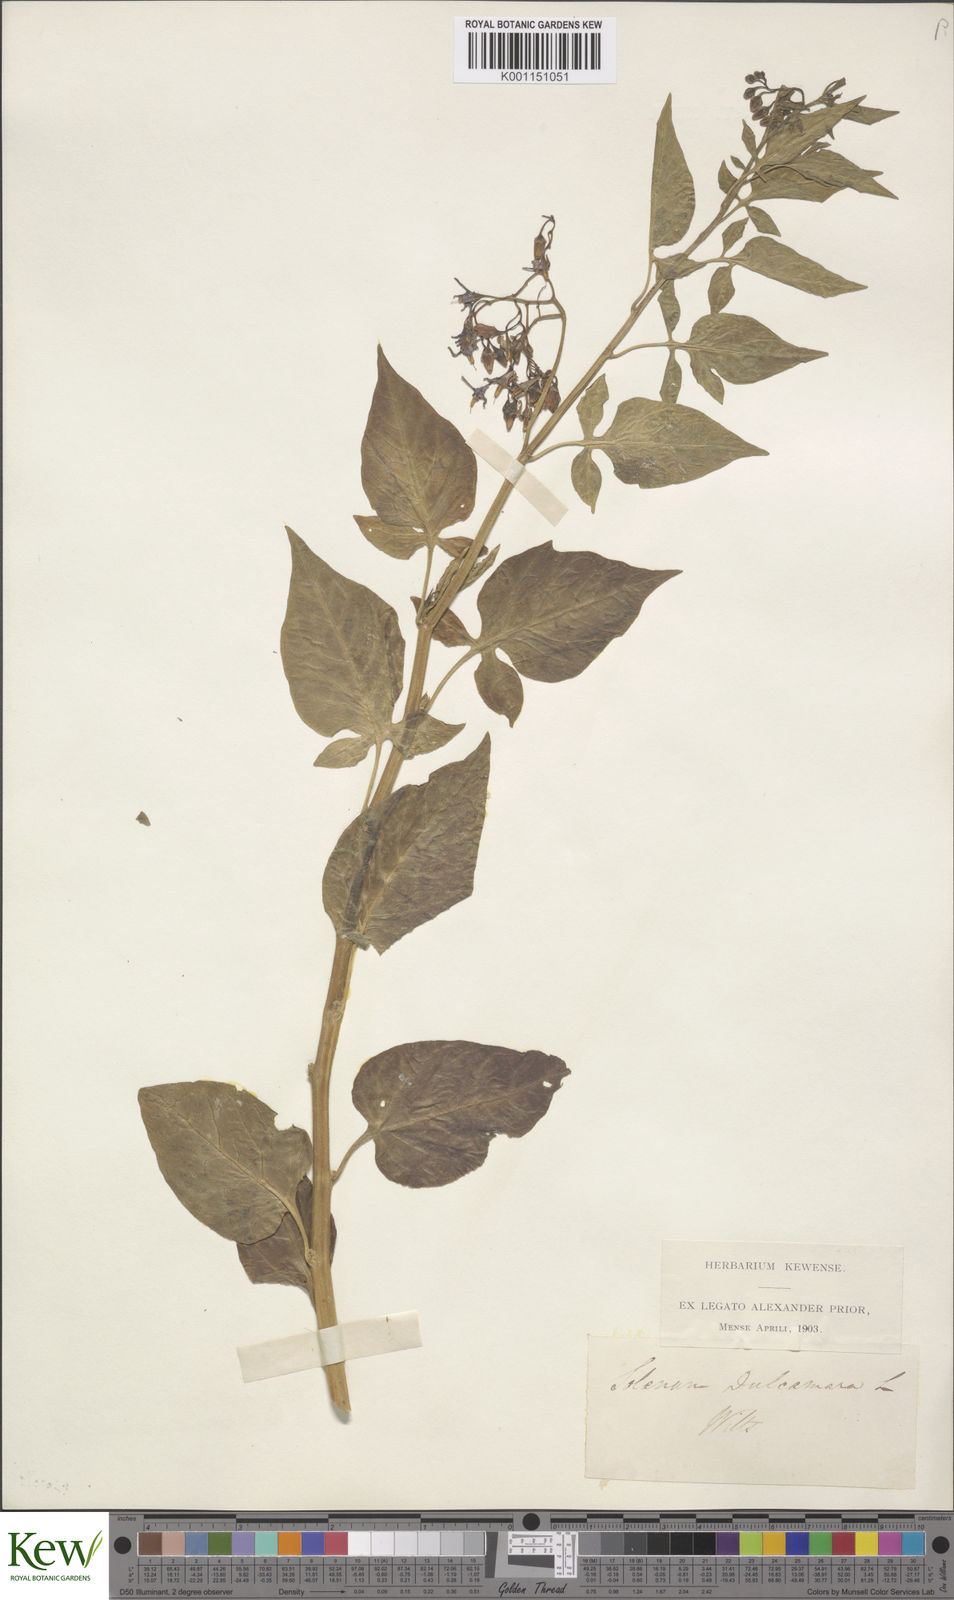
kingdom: Plantae
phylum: Tracheophyta
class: Magnoliopsida
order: Solanales
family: Solanaceae
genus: Solanum
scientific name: Solanum dulcamara
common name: Climbing nightshade
